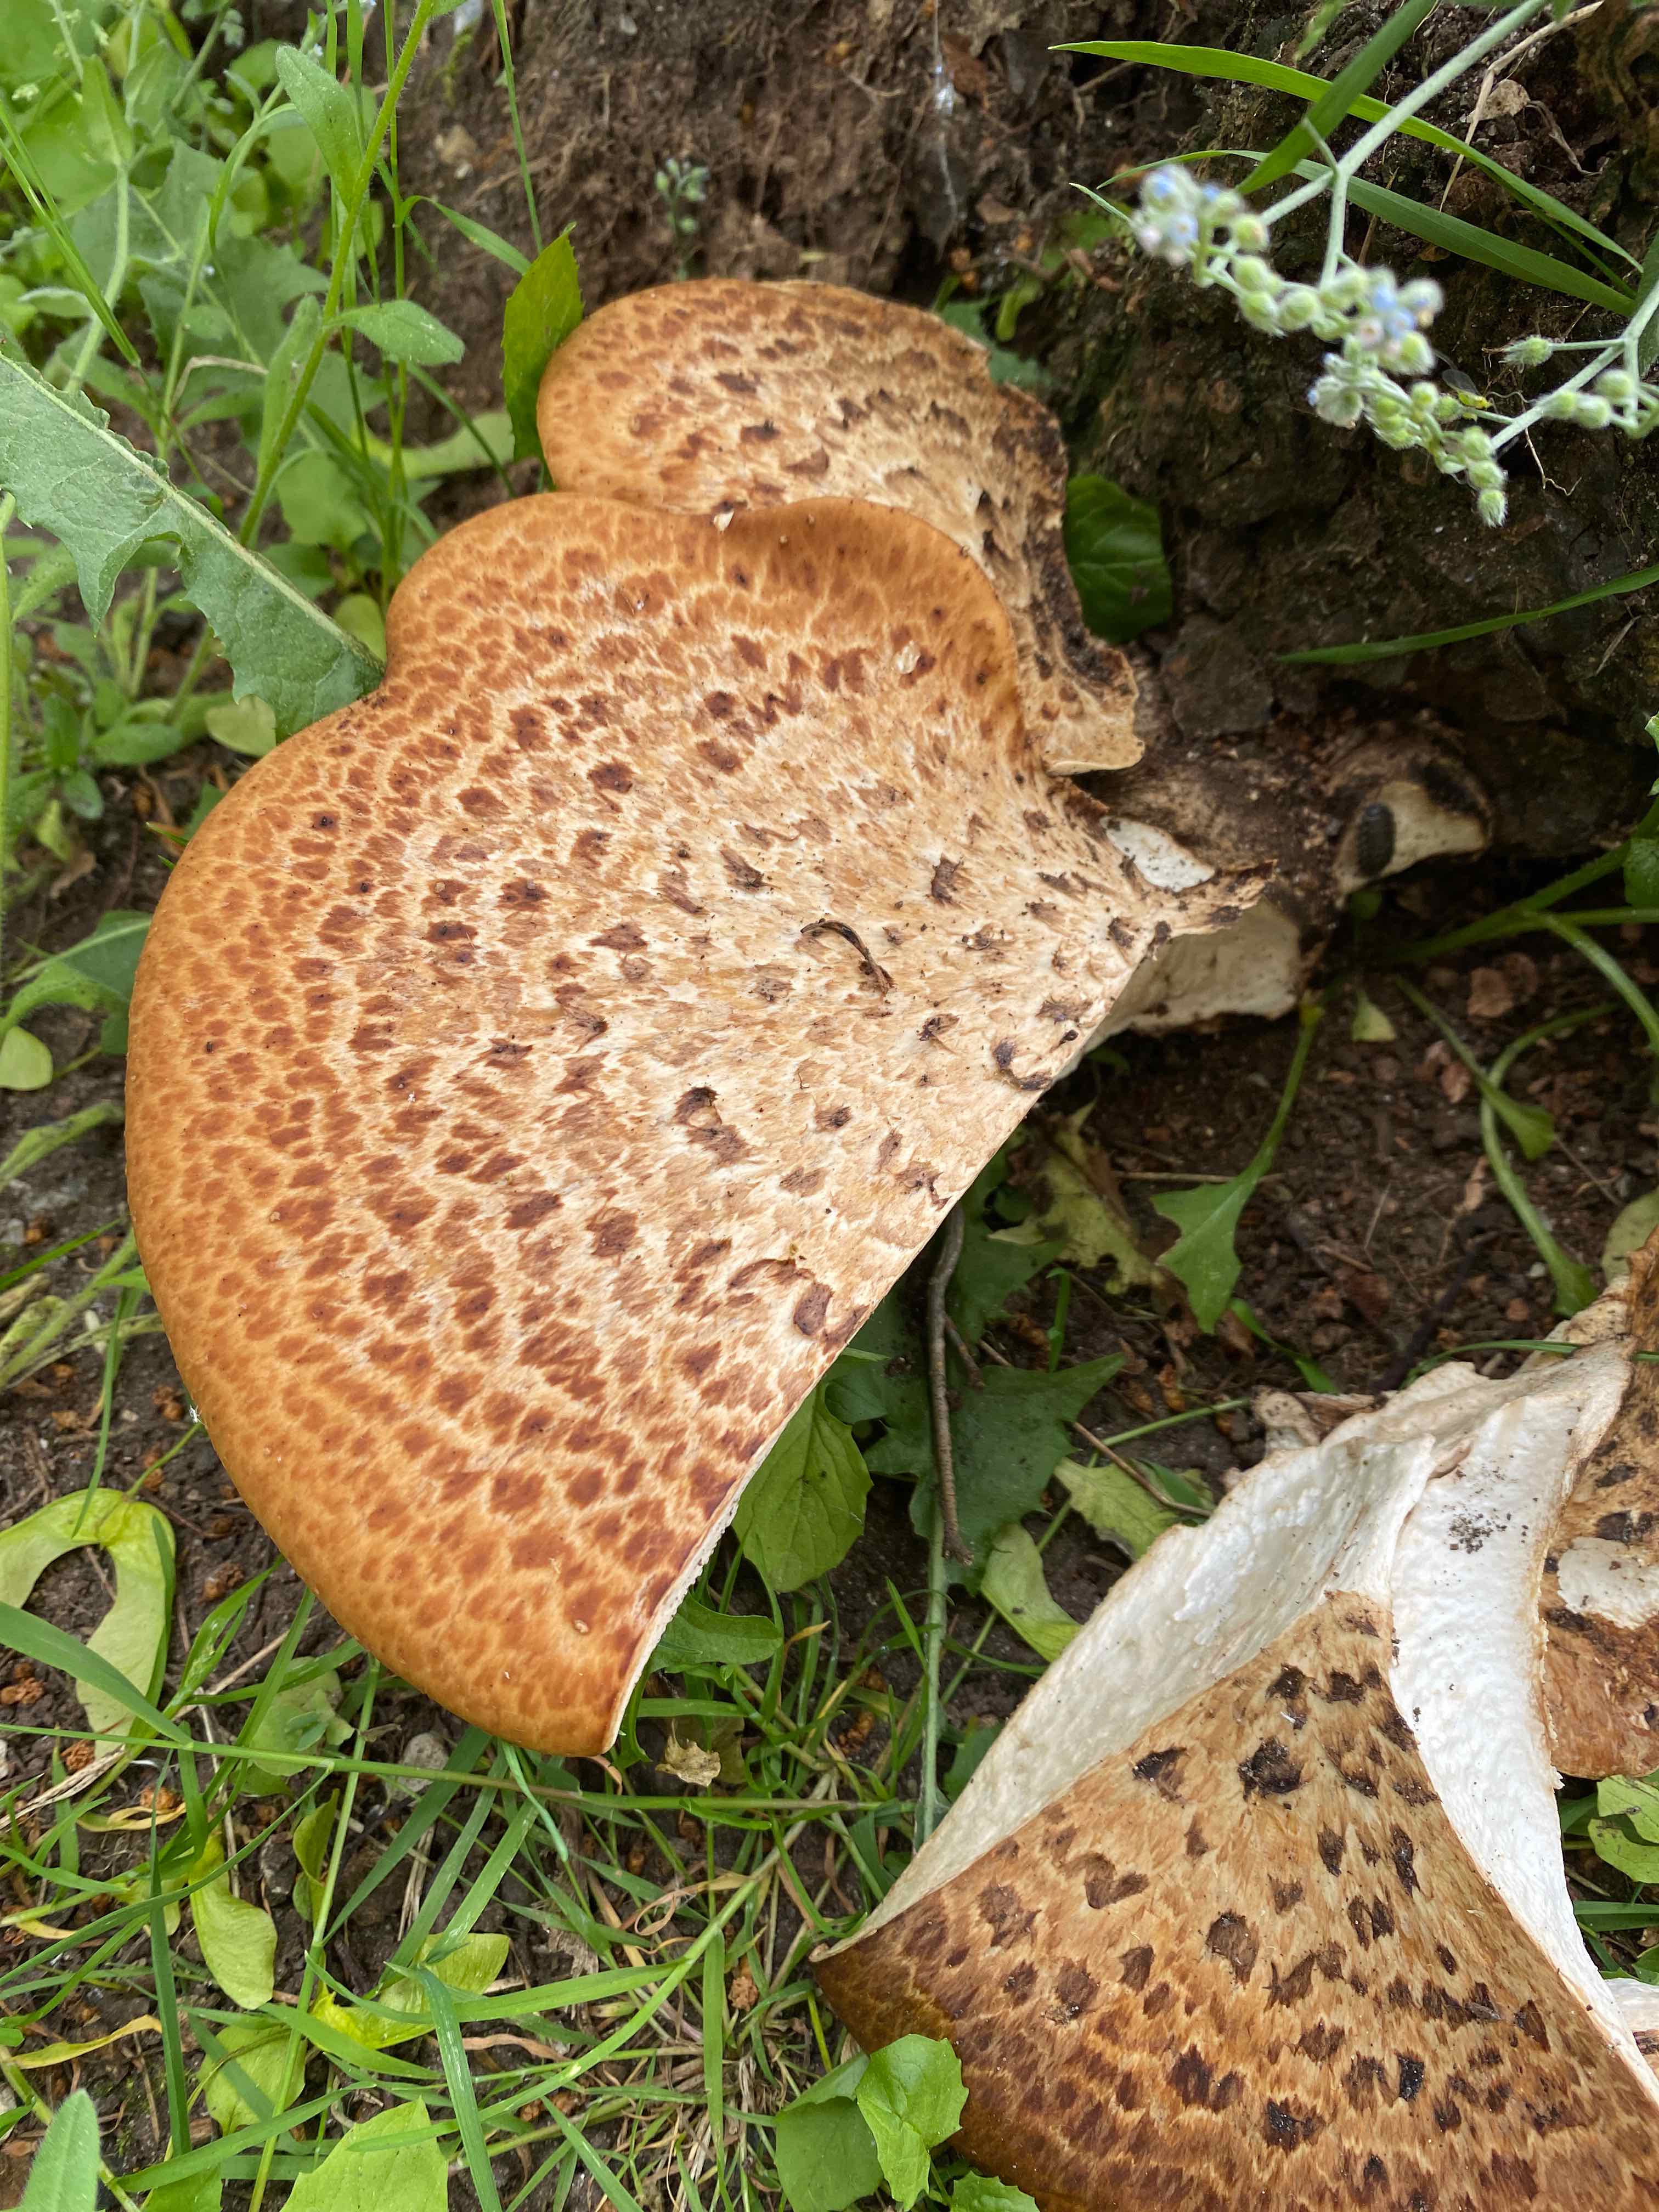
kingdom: Fungi
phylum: Basidiomycota
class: Agaricomycetes
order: Polyporales
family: Polyporaceae
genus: Cerioporus
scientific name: Cerioporus squamosus
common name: skællet stilkporesvamp
